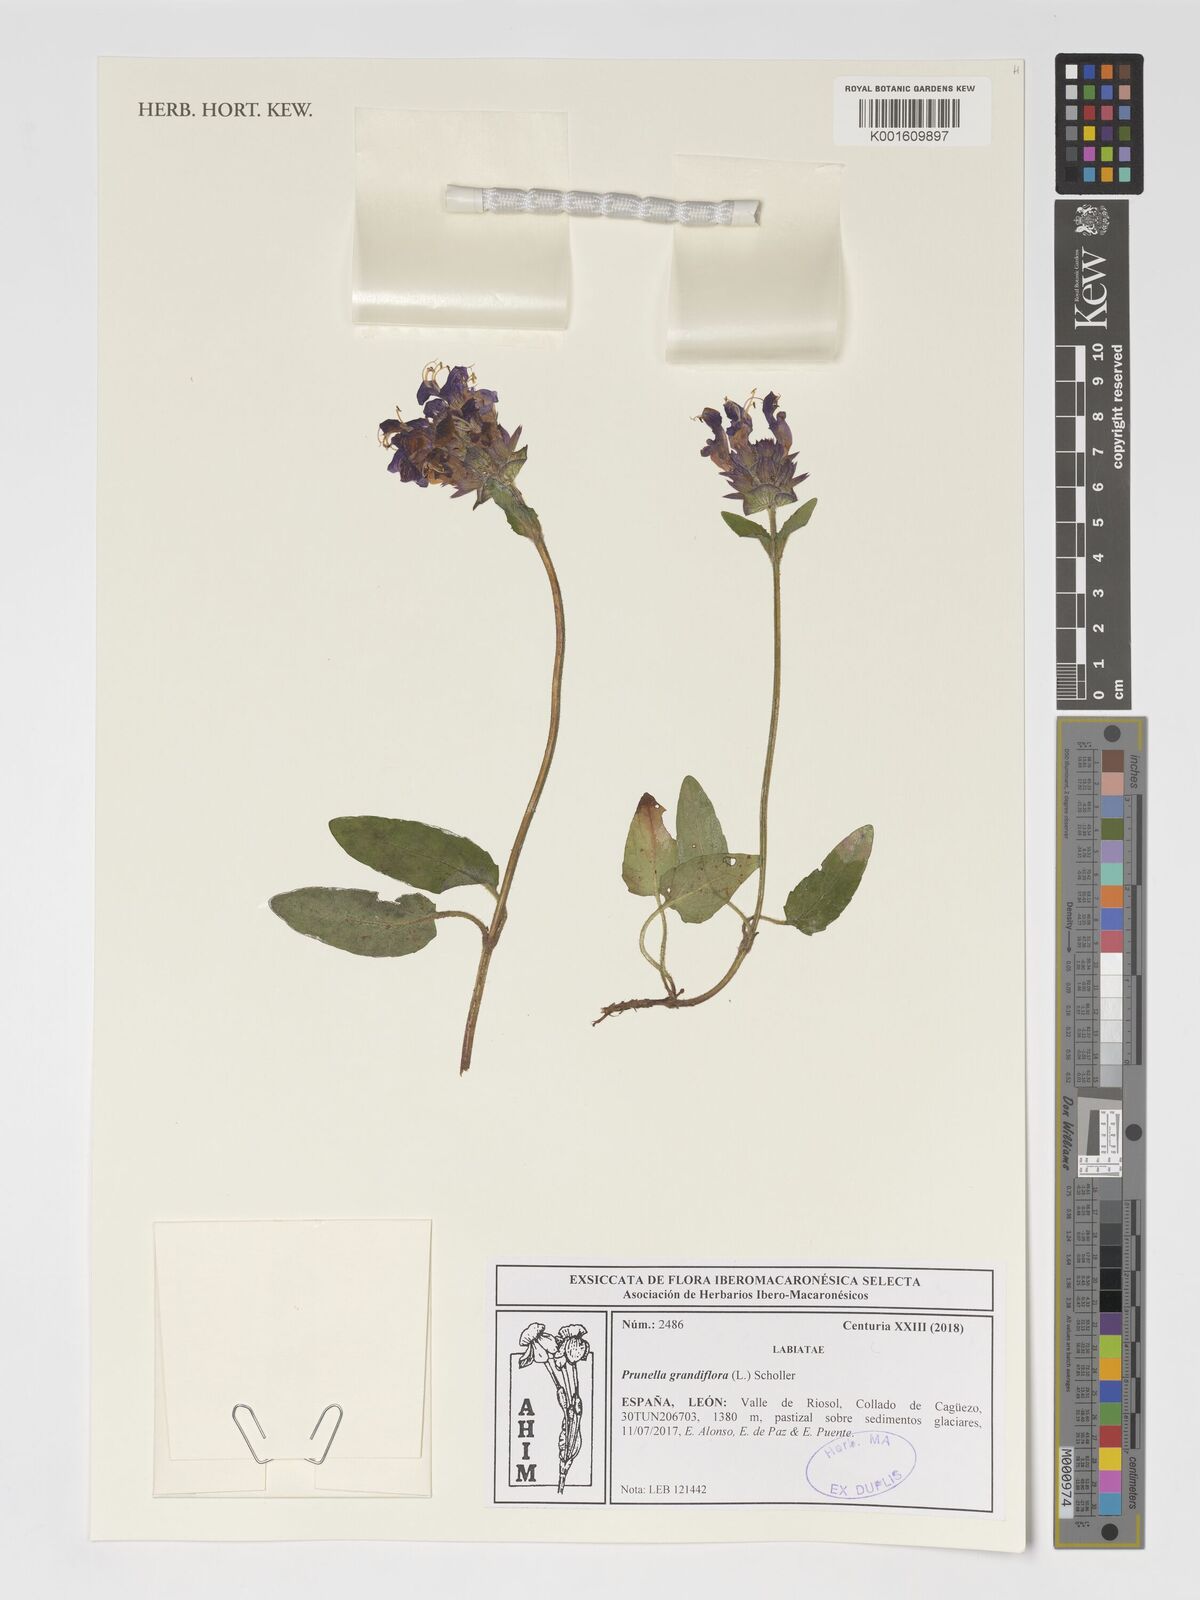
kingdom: Plantae
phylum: Tracheophyta
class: Magnoliopsida
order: Lamiales
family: Lamiaceae
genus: Prunella
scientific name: Prunella grandiflora
